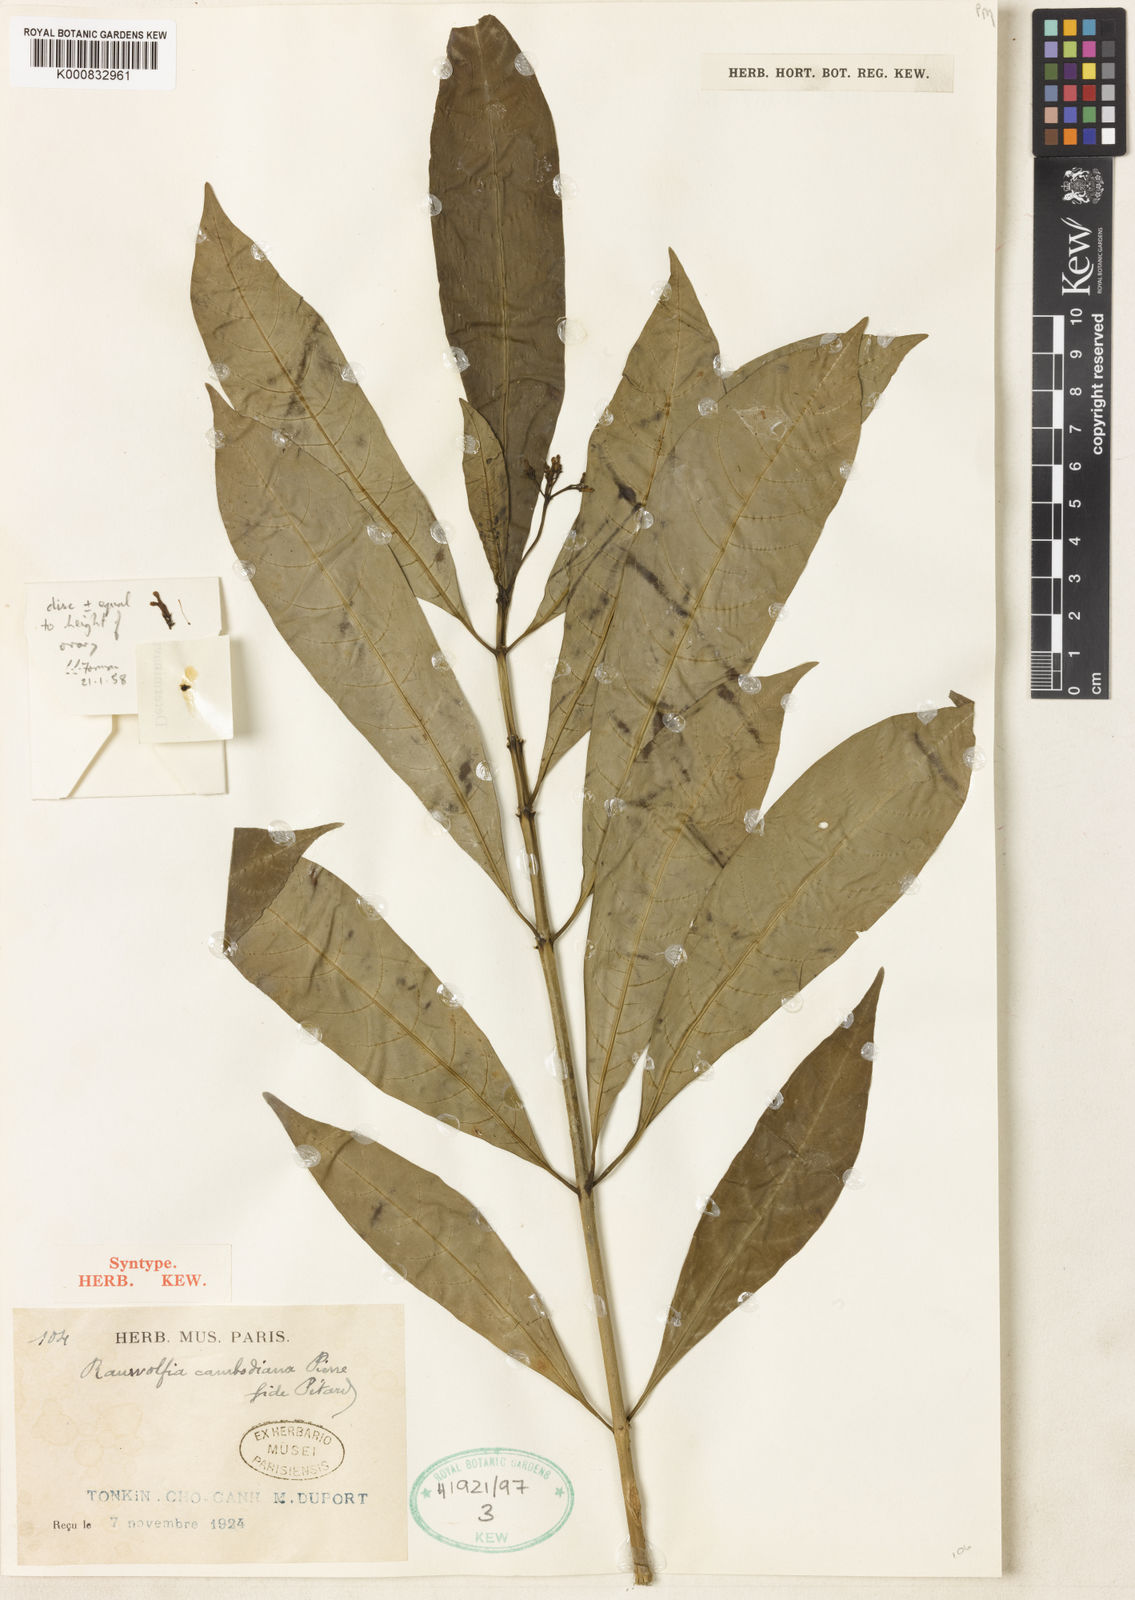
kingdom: Plantae
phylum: Tracheophyta
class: Magnoliopsida
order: Gentianales
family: Apocynaceae
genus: Rauvolfia
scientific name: Rauvolfia cambodiana
